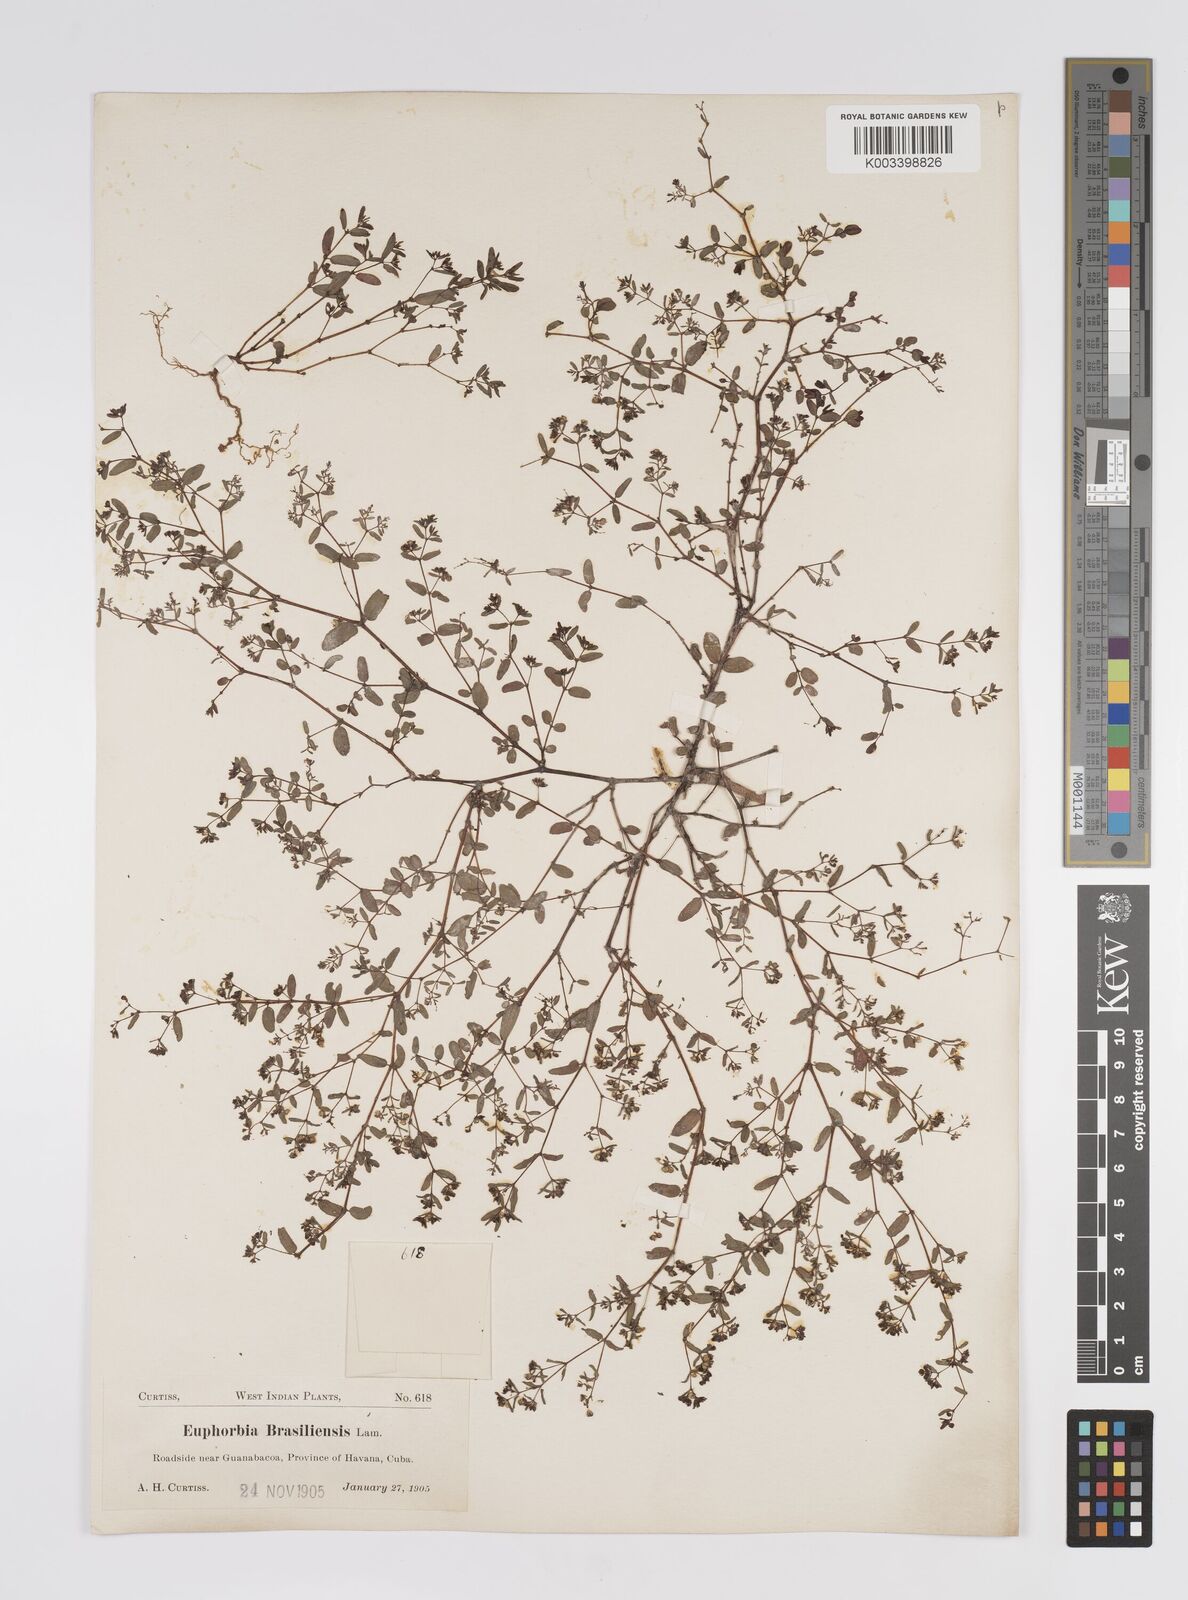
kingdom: Plantae
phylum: Tracheophyta
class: Magnoliopsida
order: Malpighiales
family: Euphorbiaceae
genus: Euphorbia
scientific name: Euphorbia hyssopifolia
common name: Hyssopleaf sandmat
